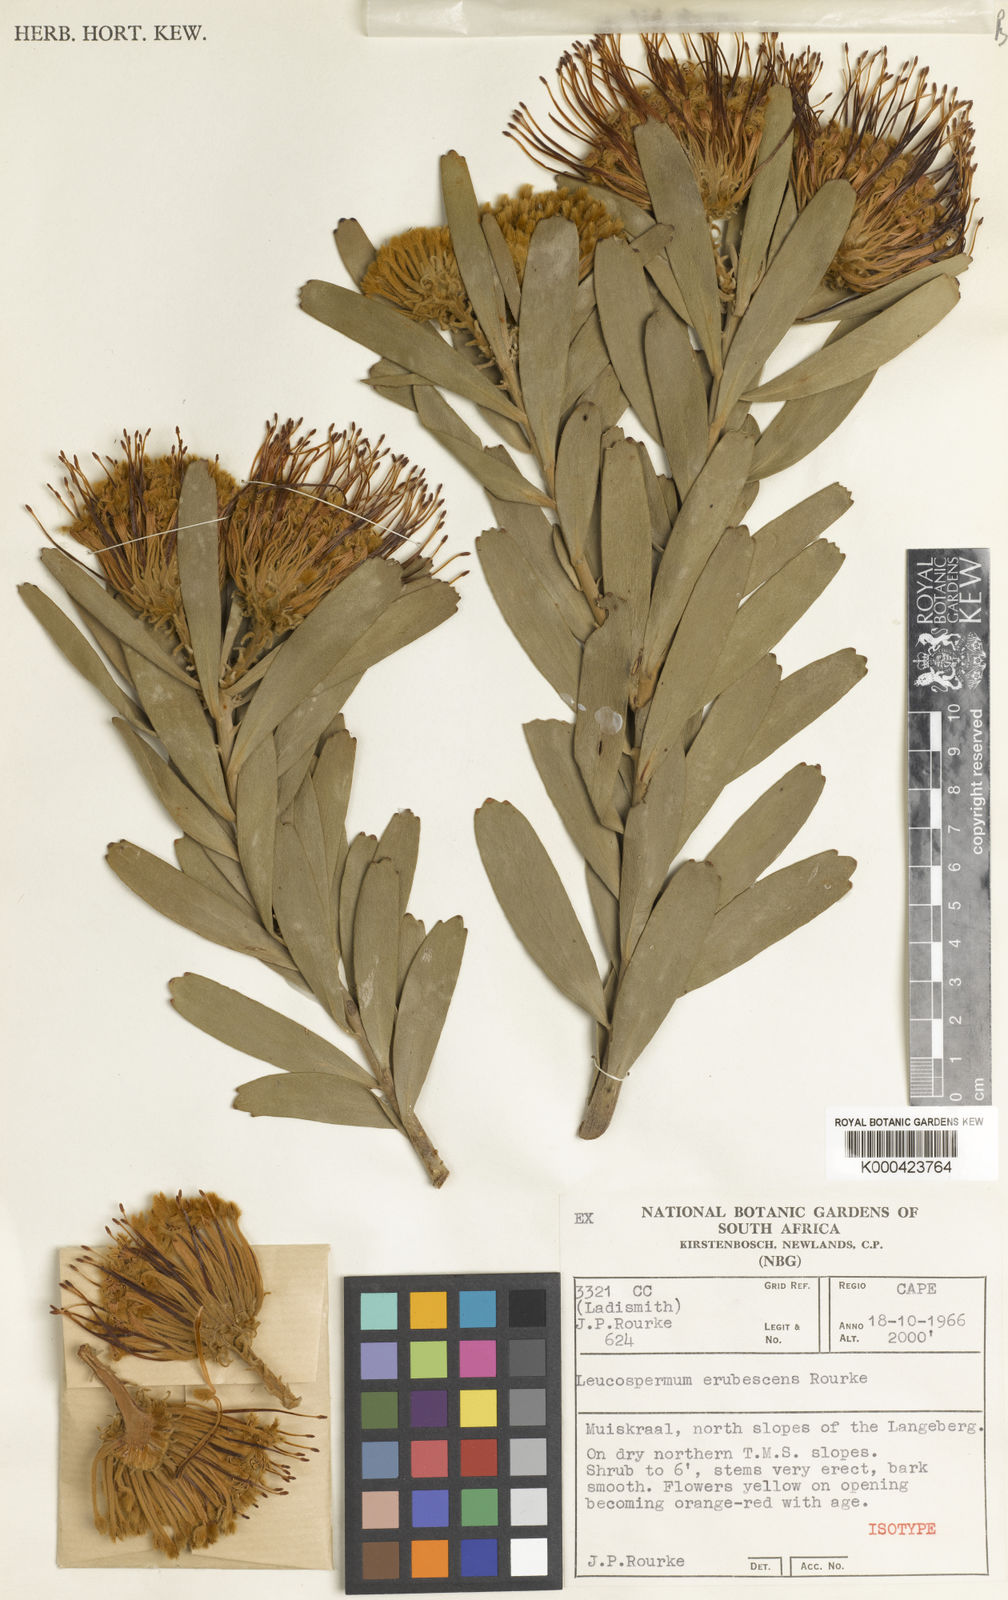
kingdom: Plantae
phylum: Tracheophyta
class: Magnoliopsida
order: Proteales
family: Proteaceae
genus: Leucospermum
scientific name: Leucospermum erubescens
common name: Oudtshoorn pincushion
